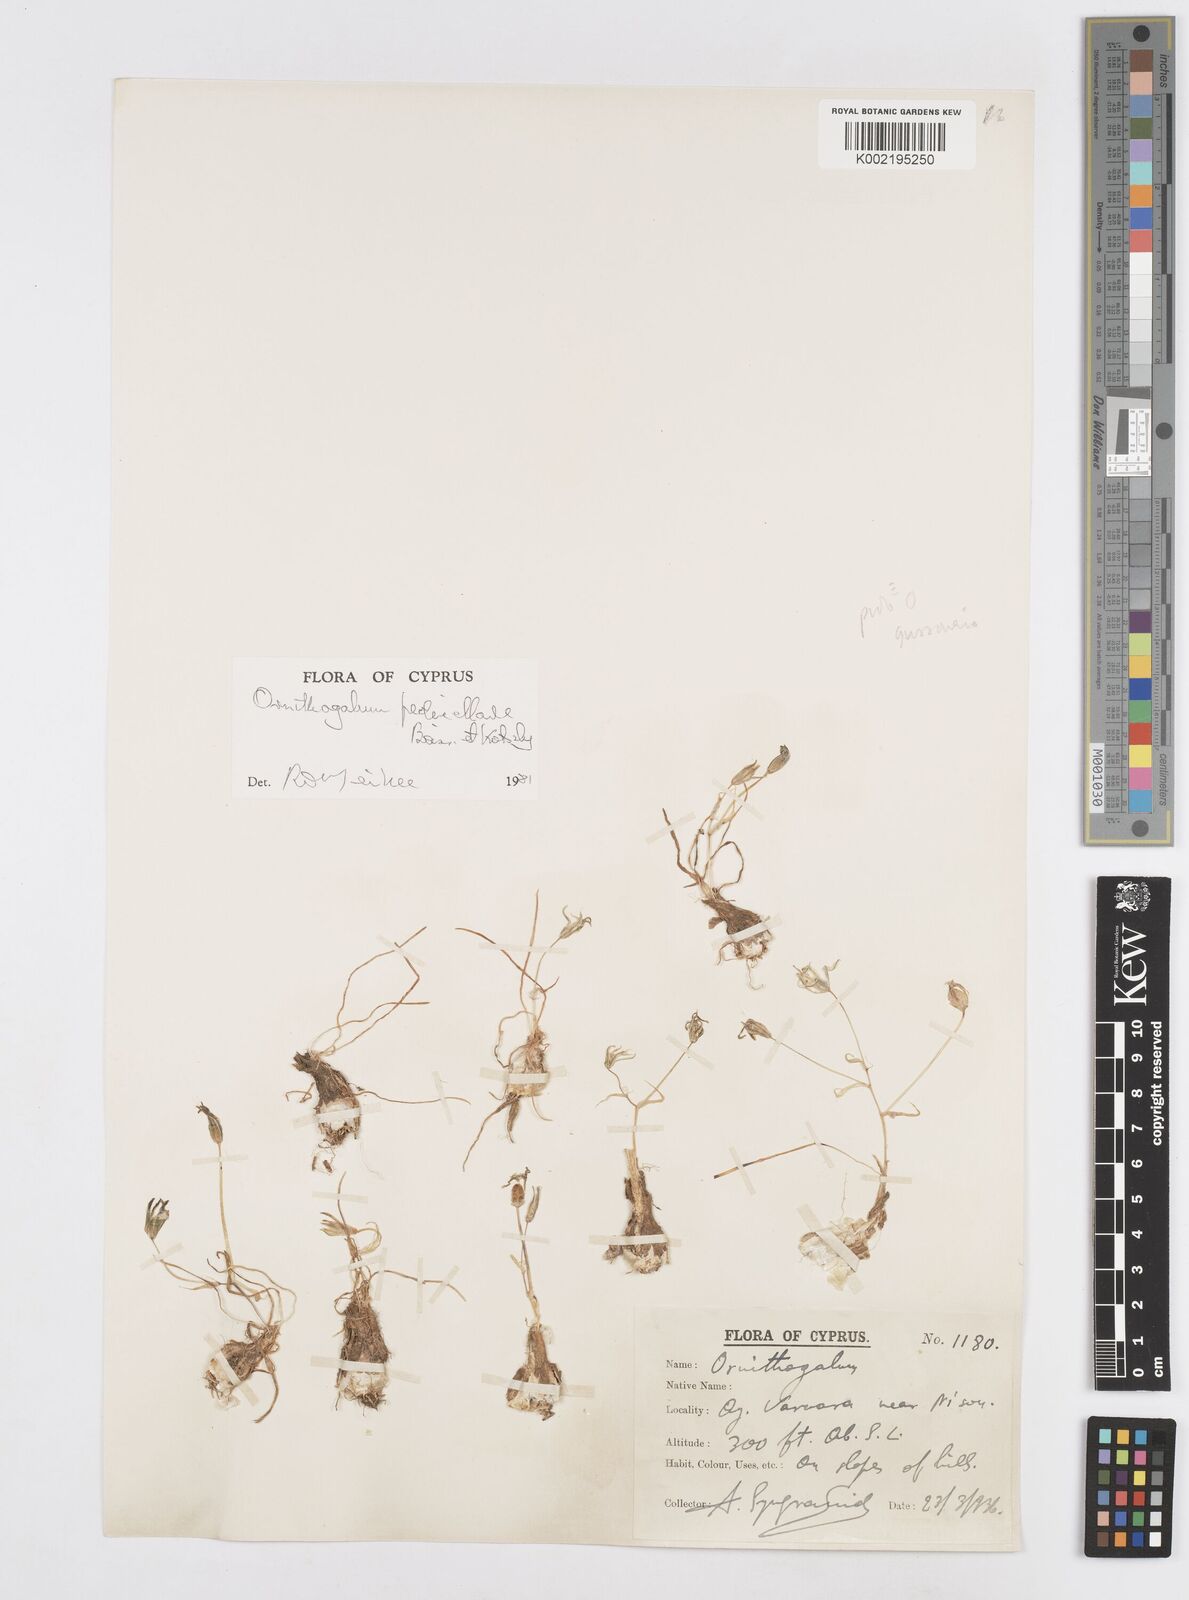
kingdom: Plantae
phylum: Tracheophyta
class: Liliopsida
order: Asparagales
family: Asparagaceae
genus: Ornithogalum
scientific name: Ornithogalum pedicellare
